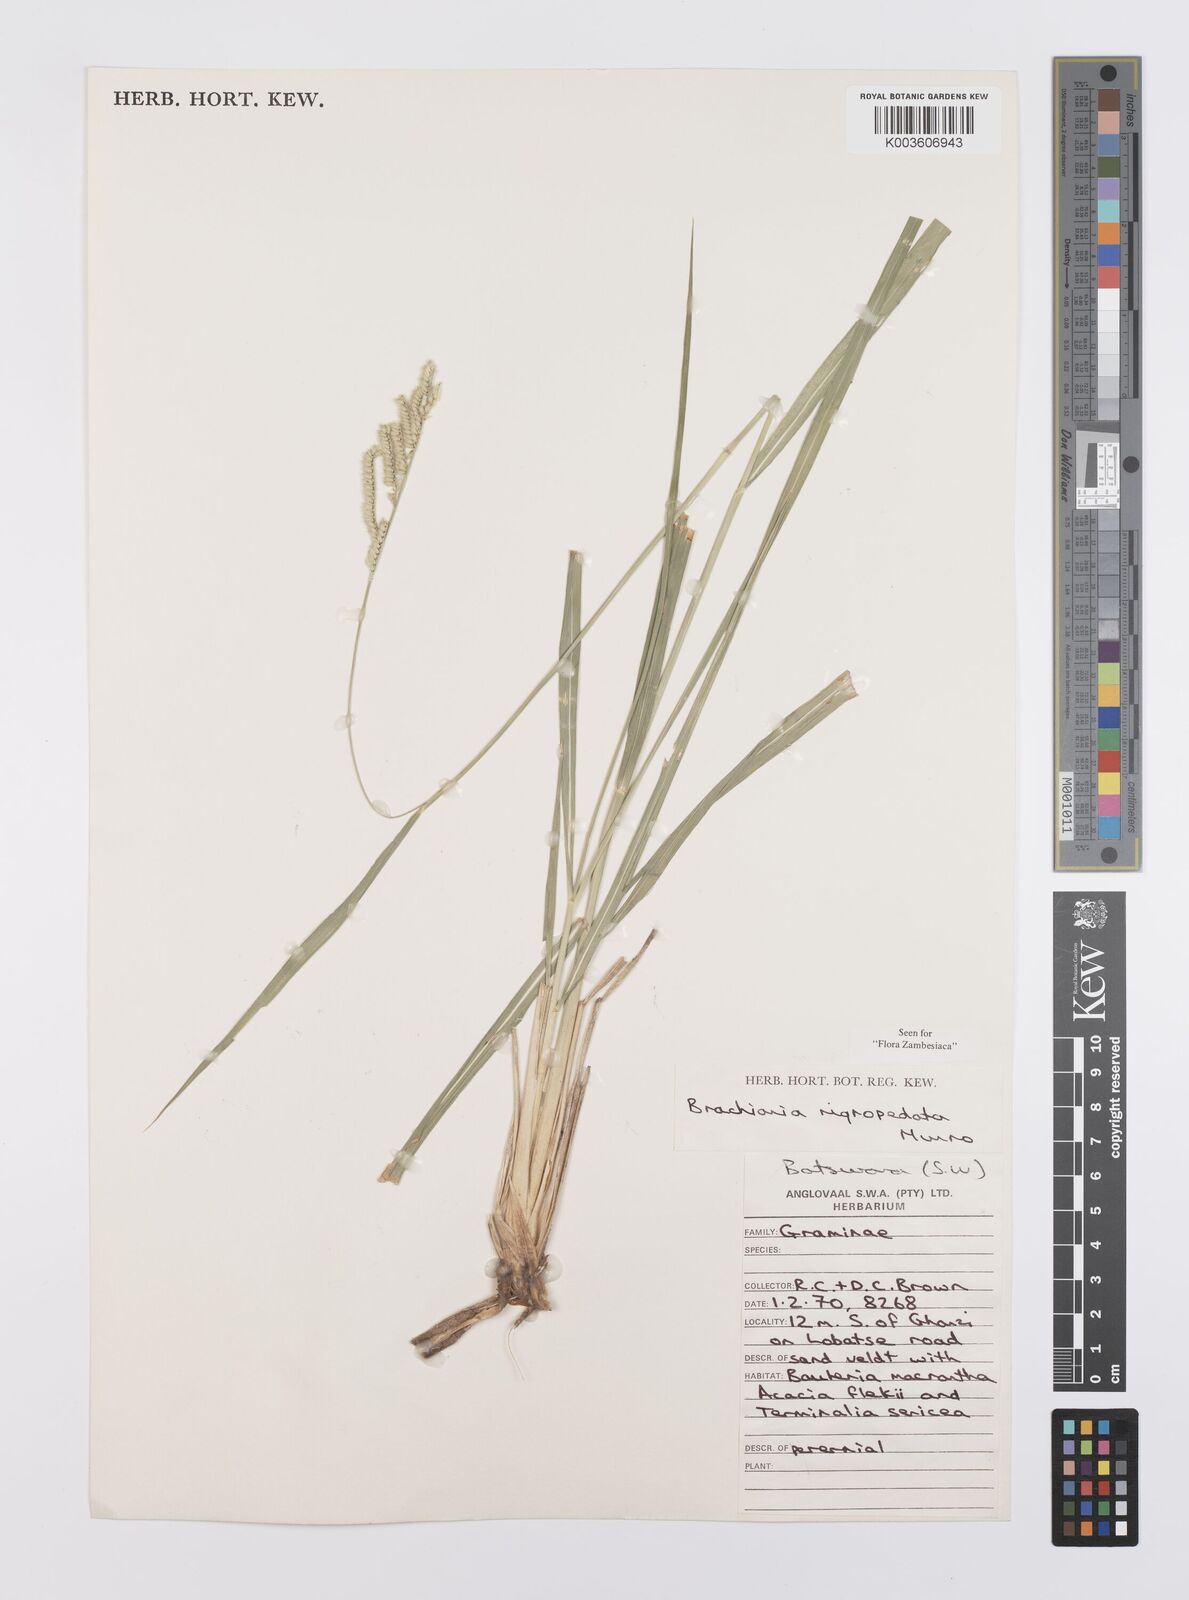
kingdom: Plantae
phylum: Tracheophyta
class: Liliopsida
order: Poales
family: Poaceae
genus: Urochloa
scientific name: Urochloa nigropedata
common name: Spotted signal grass
